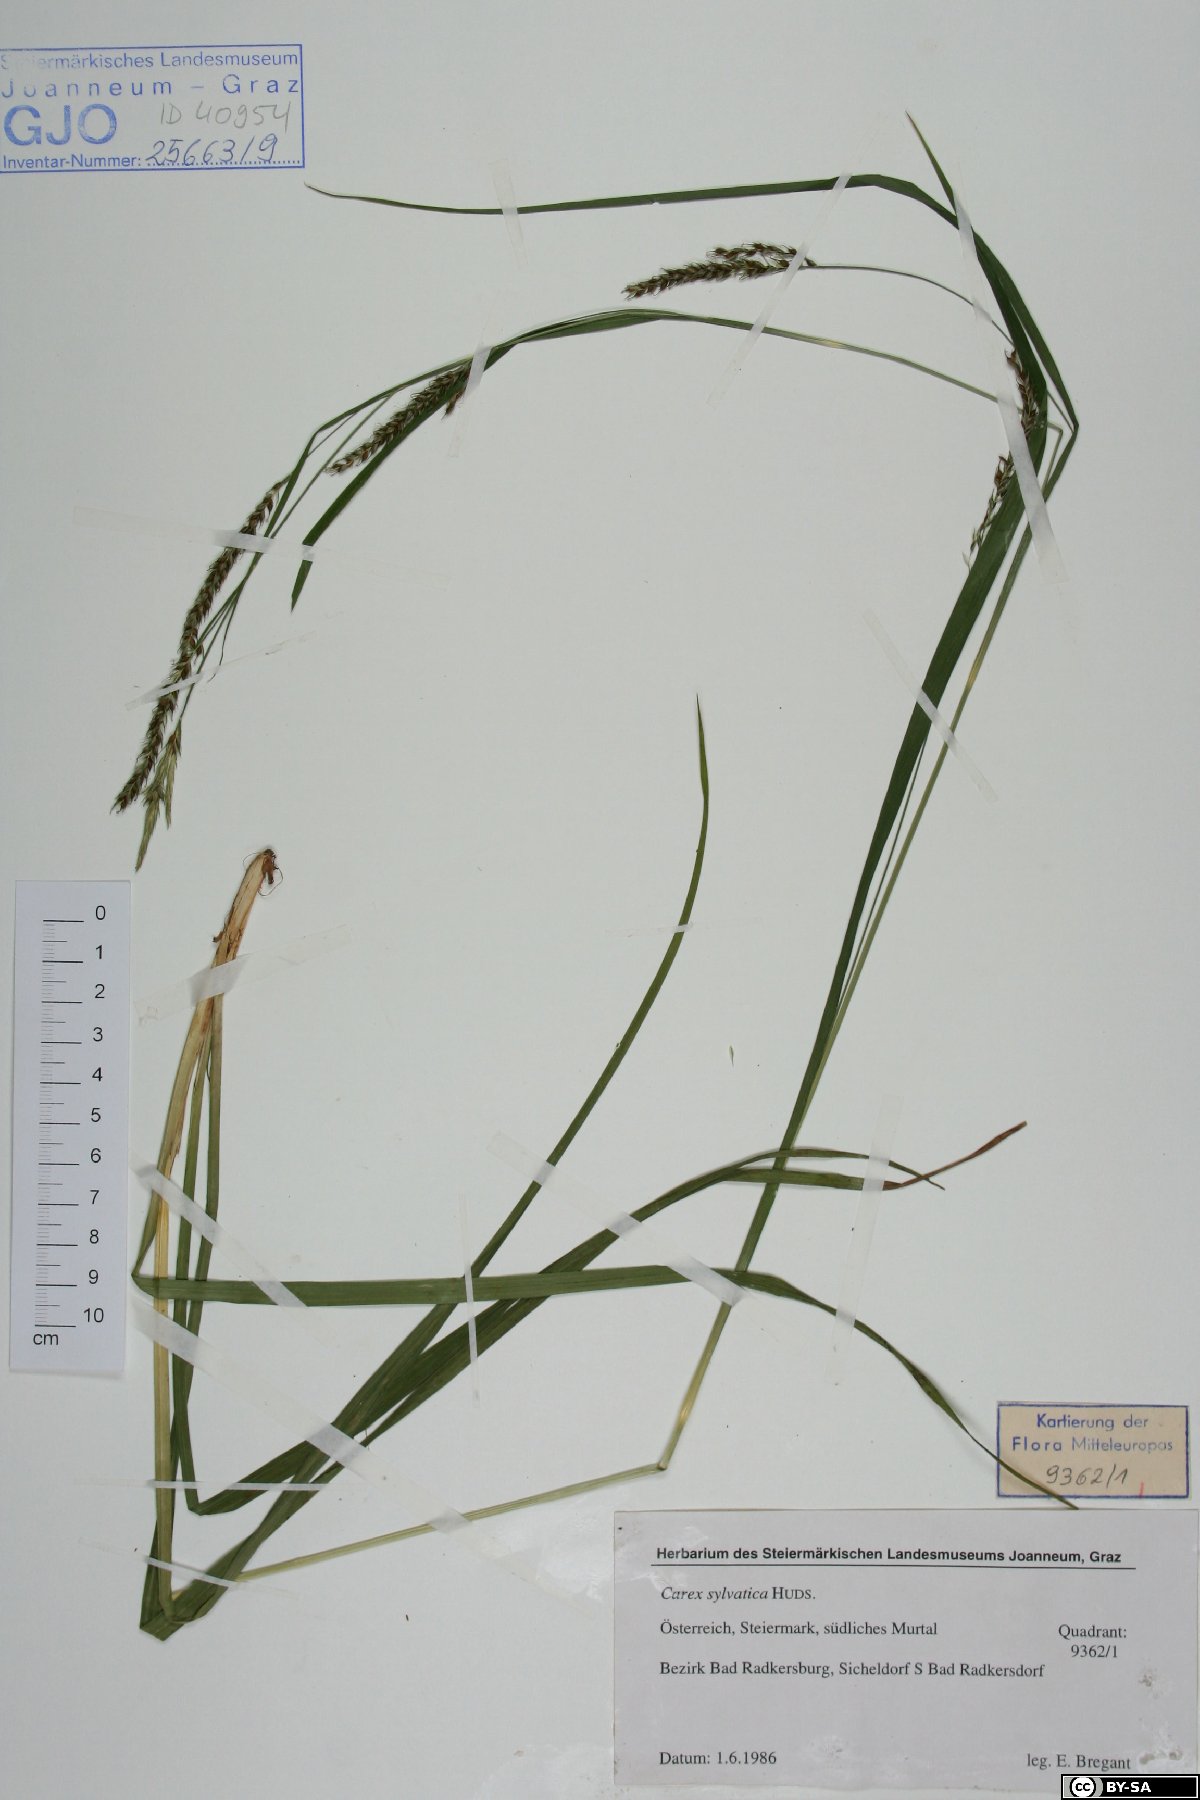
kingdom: Plantae
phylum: Tracheophyta
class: Liliopsida
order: Poales
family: Cyperaceae
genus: Carex
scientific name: Carex sylvatica
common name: Wood-sedge
